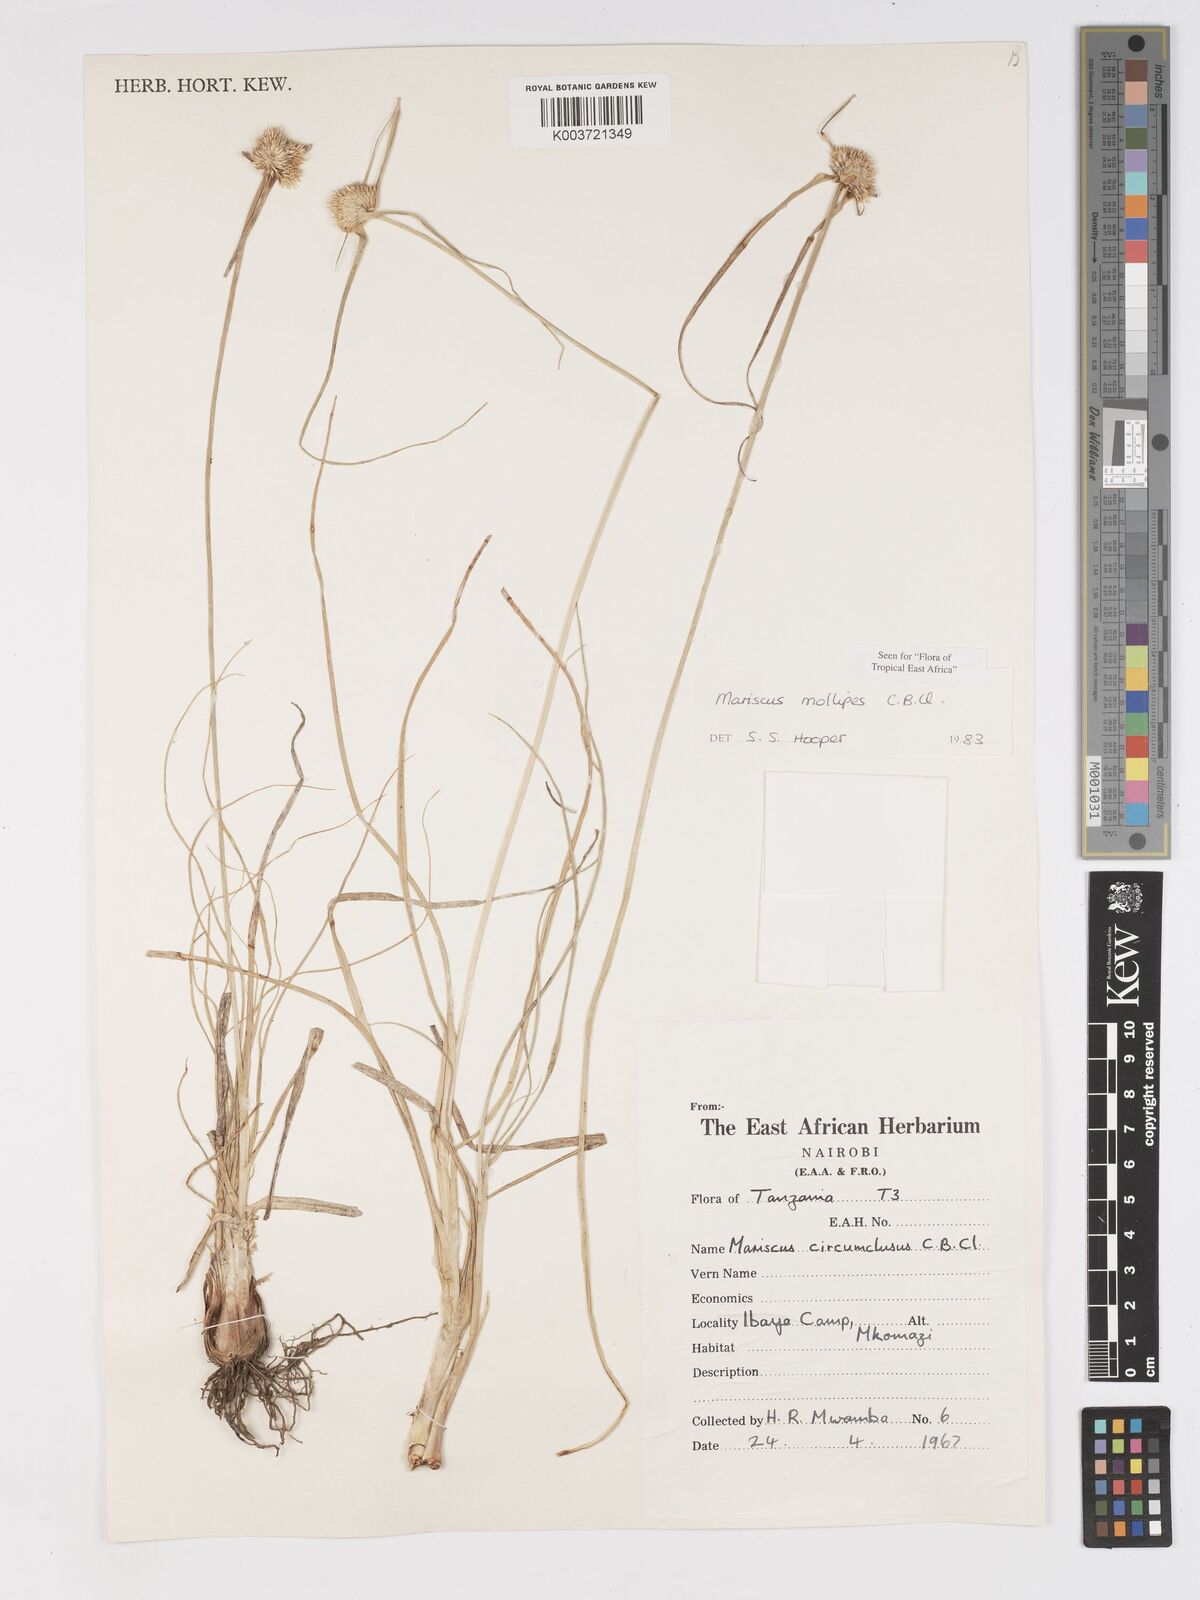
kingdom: Plantae
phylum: Tracheophyta
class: Liliopsida
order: Poales
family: Cyperaceae
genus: Cyperus
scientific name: Cyperus mollipes
